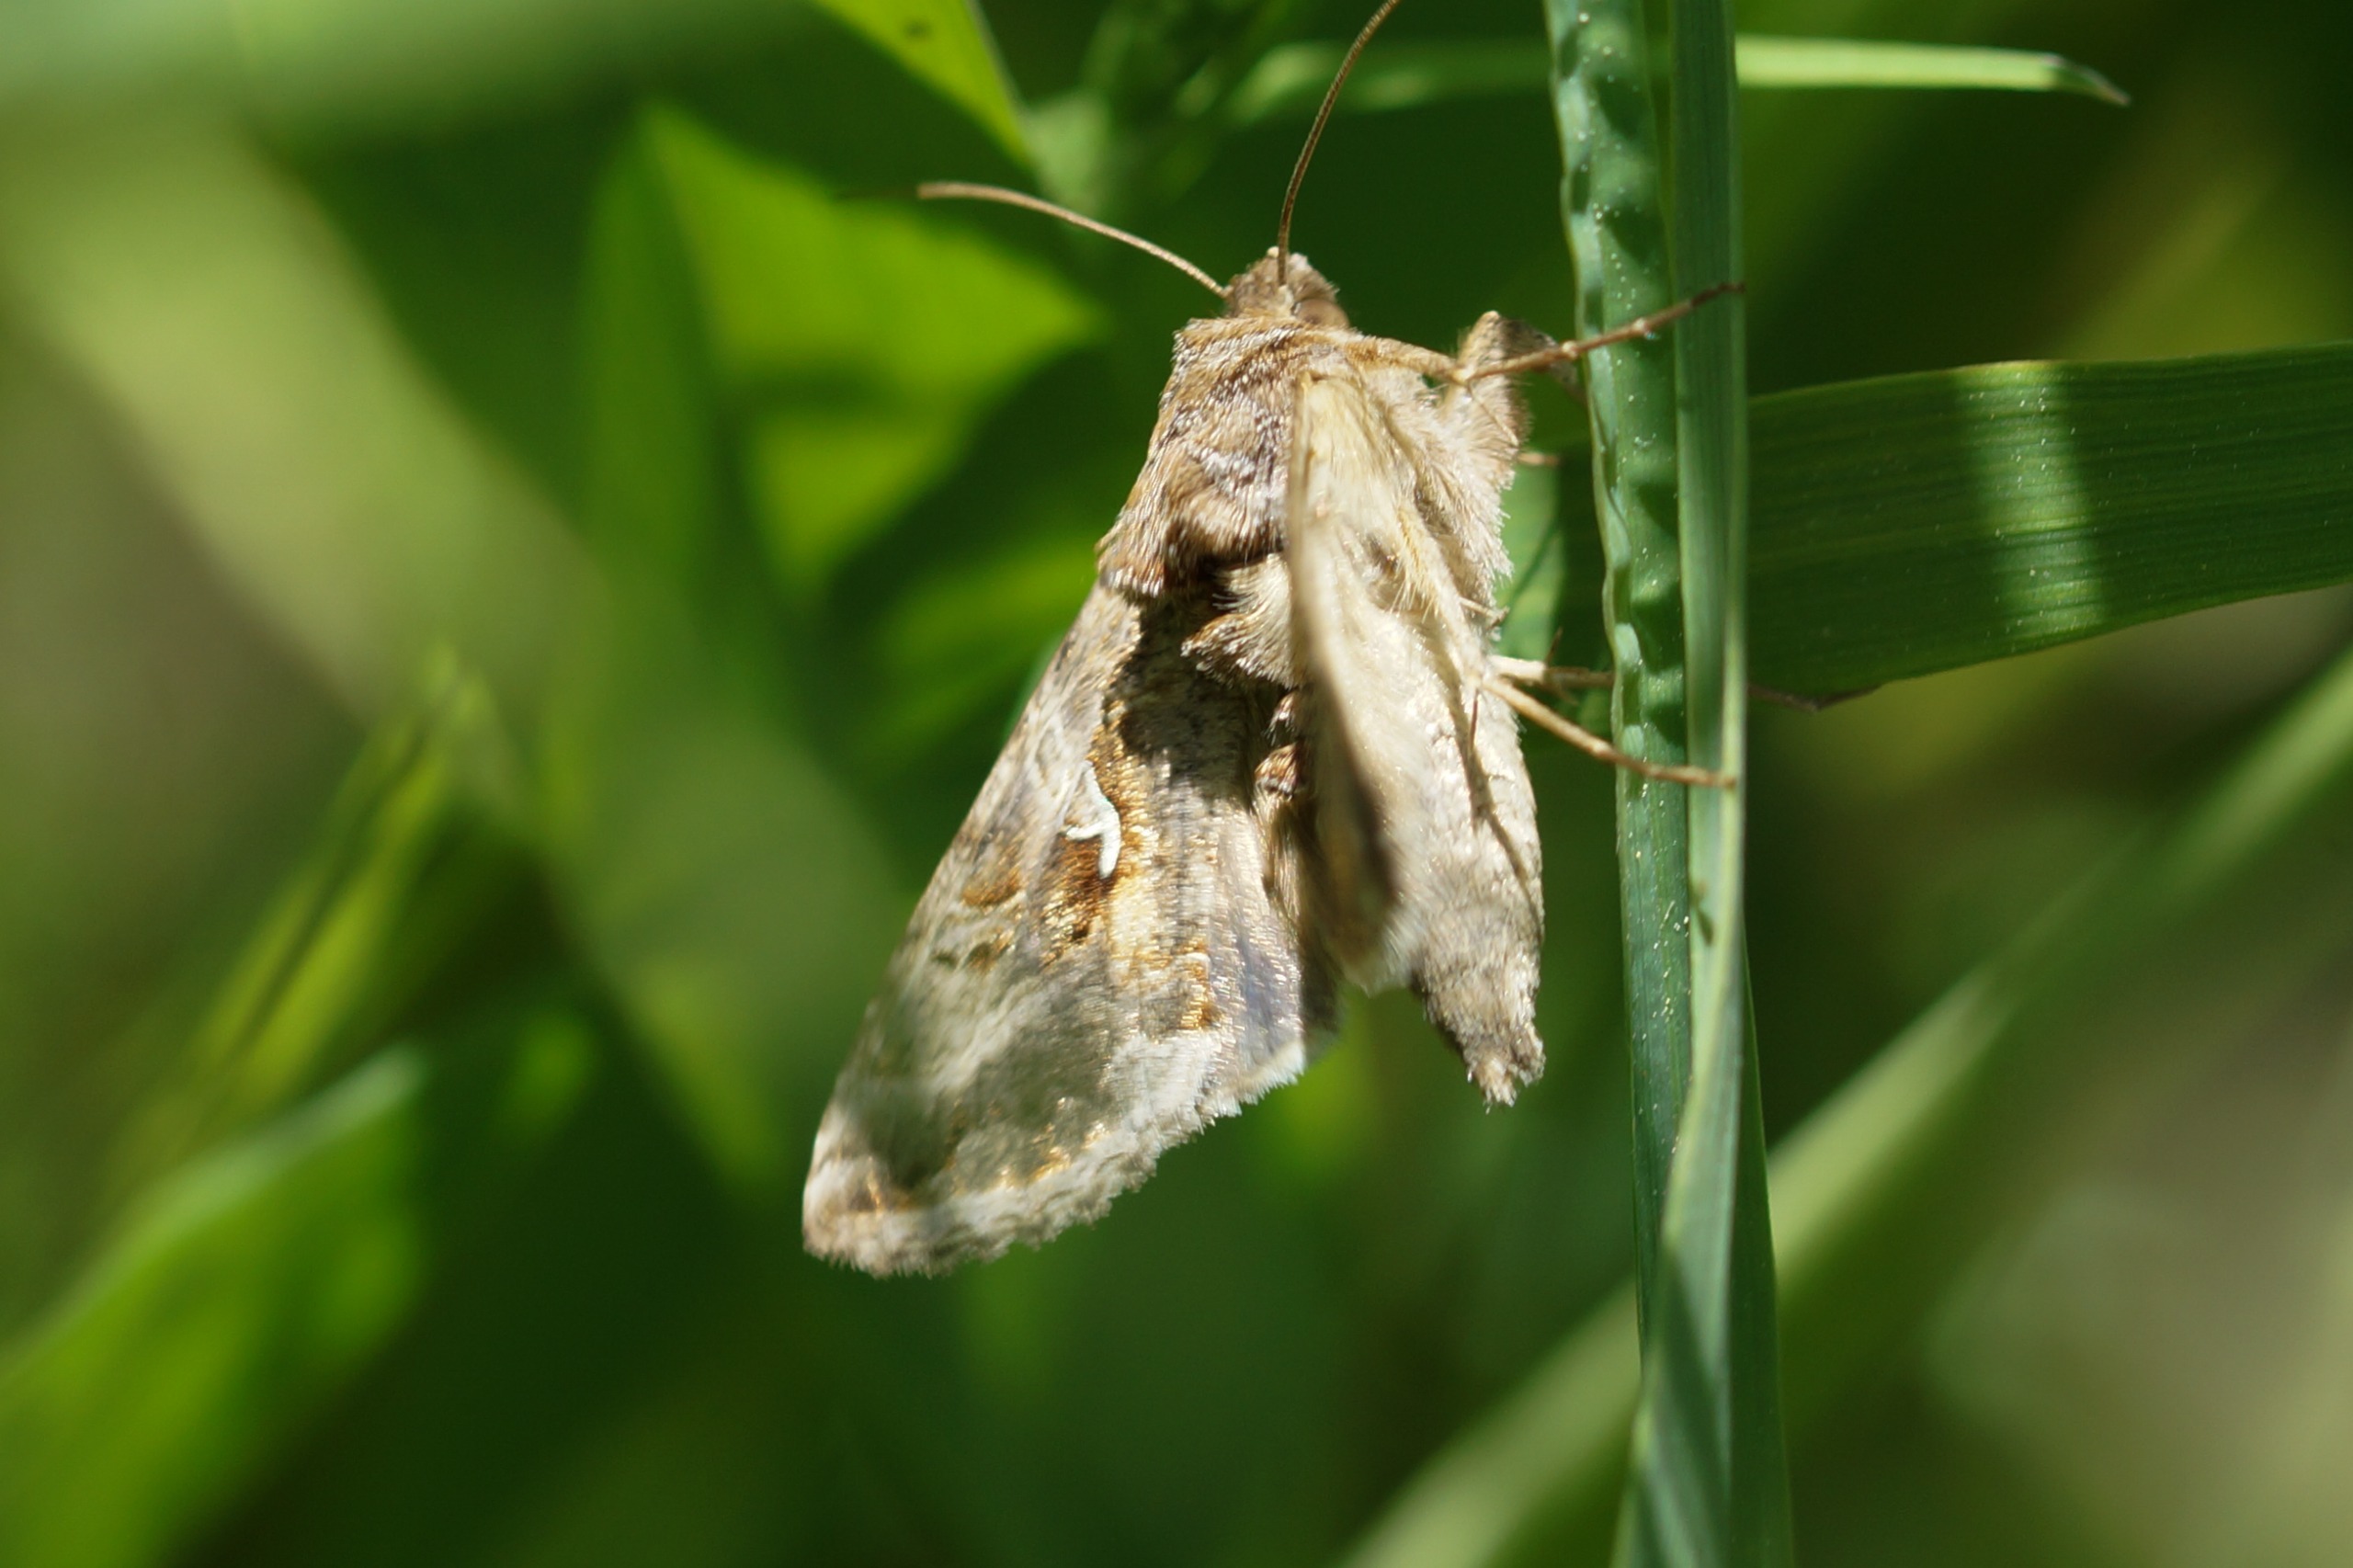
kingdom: Animalia
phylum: Arthropoda
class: Insecta
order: Lepidoptera
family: Noctuidae
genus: Autographa
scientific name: Autographa gamma
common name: Gammaugle
